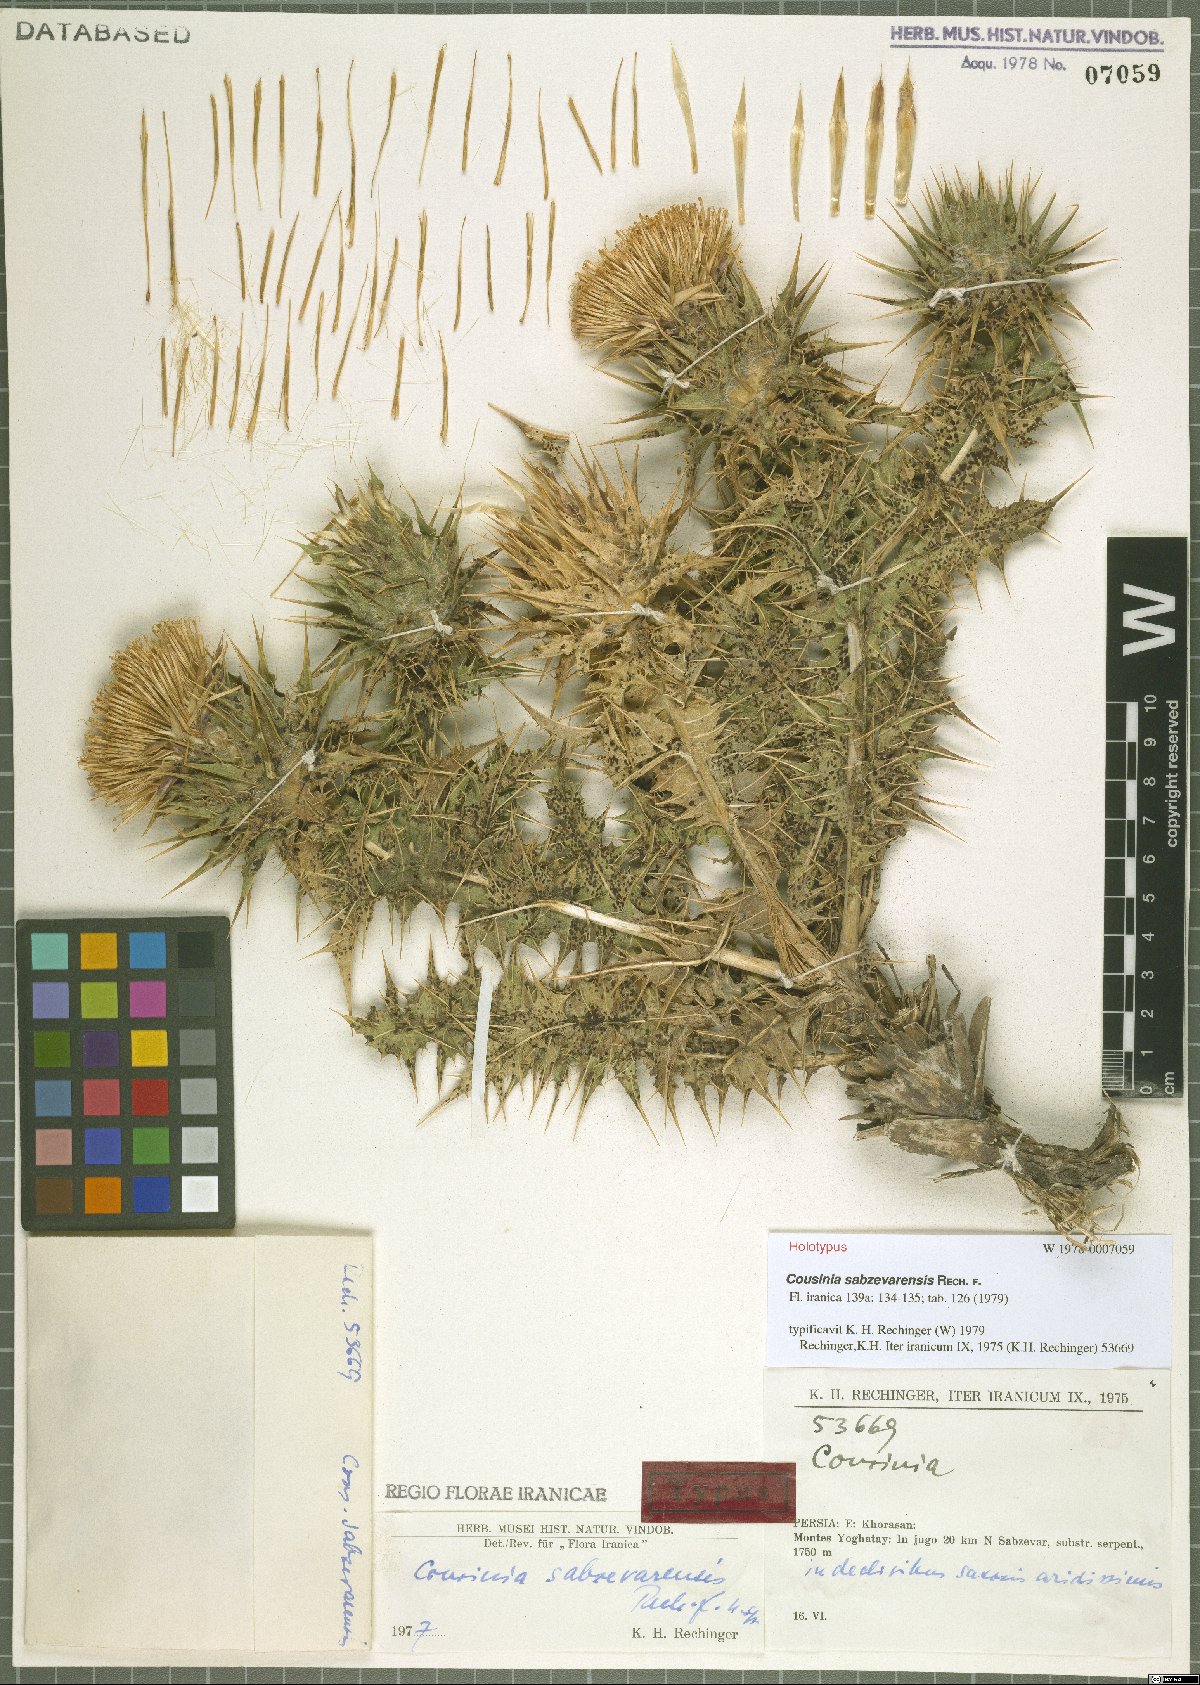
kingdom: Plantae
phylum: Tracheophyta
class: Magnoliopsida
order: Asterales
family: Asteraceae
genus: Cousinia
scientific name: Cousinia sabzevarensis
